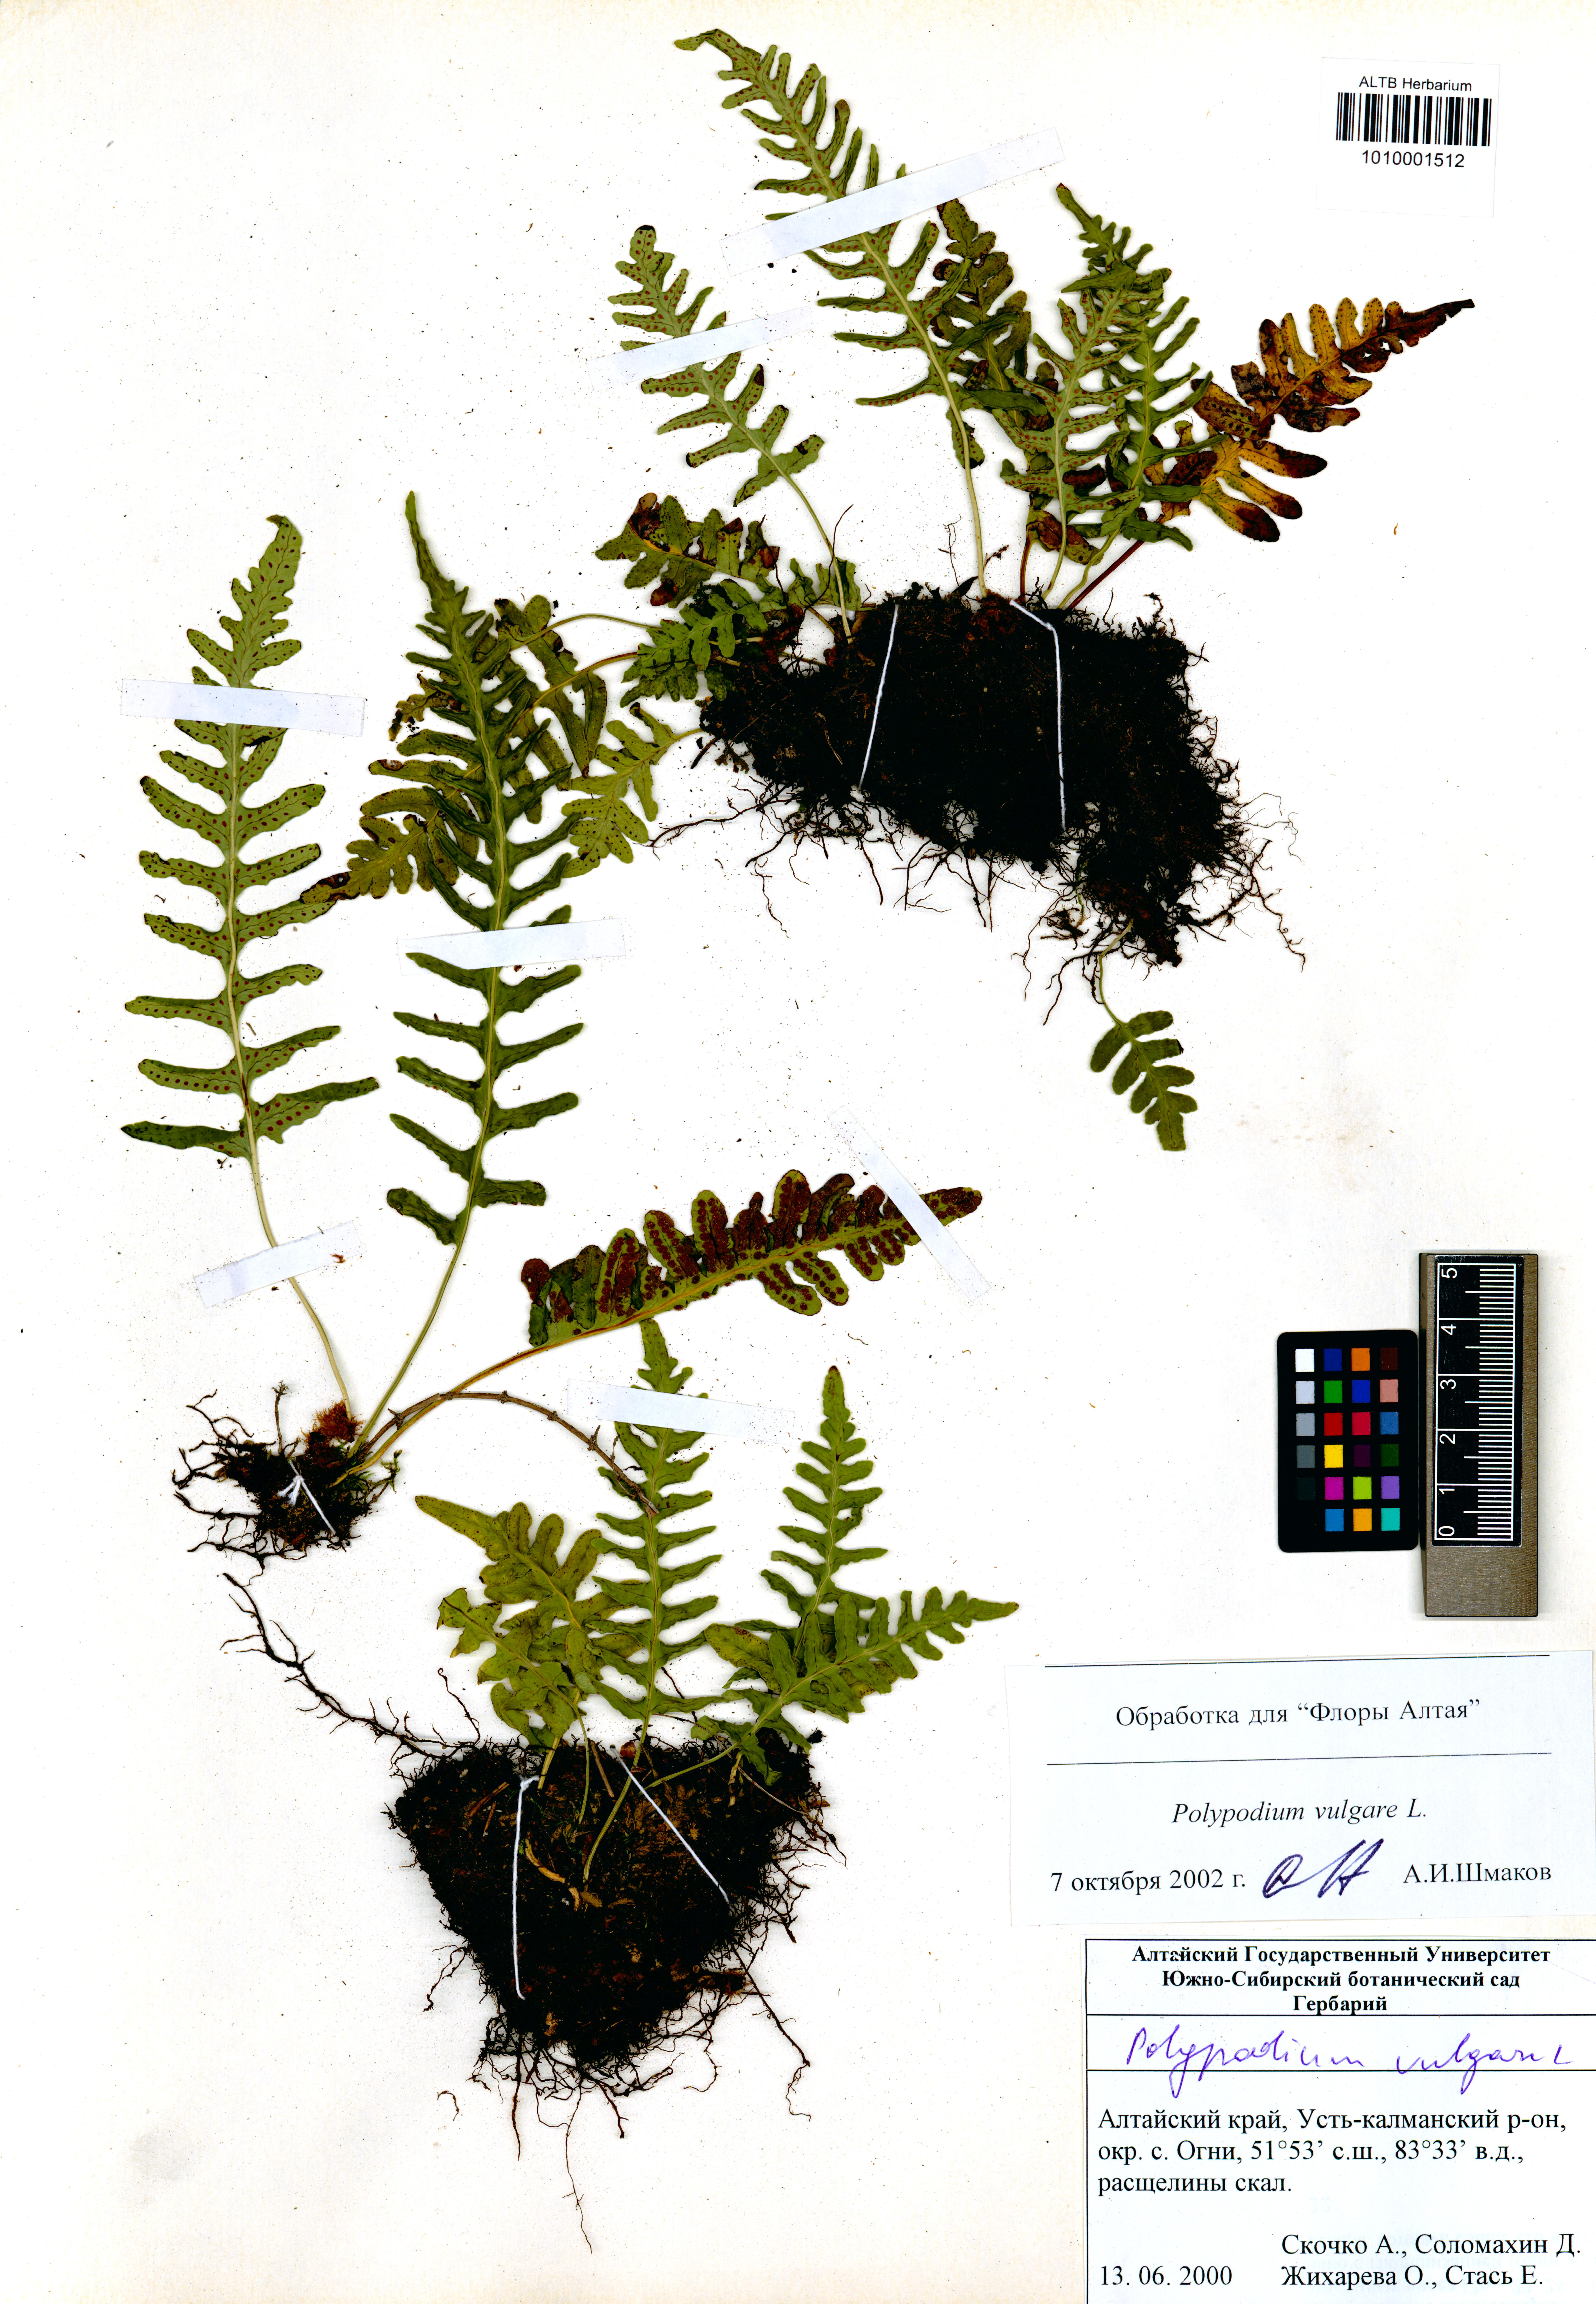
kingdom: Plantae
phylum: Tracheophyta
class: Polypodiopsida
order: Polypodiales
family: Polypodiaceae
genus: Polypodium
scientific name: Polypodium vulgare
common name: Common polypody
